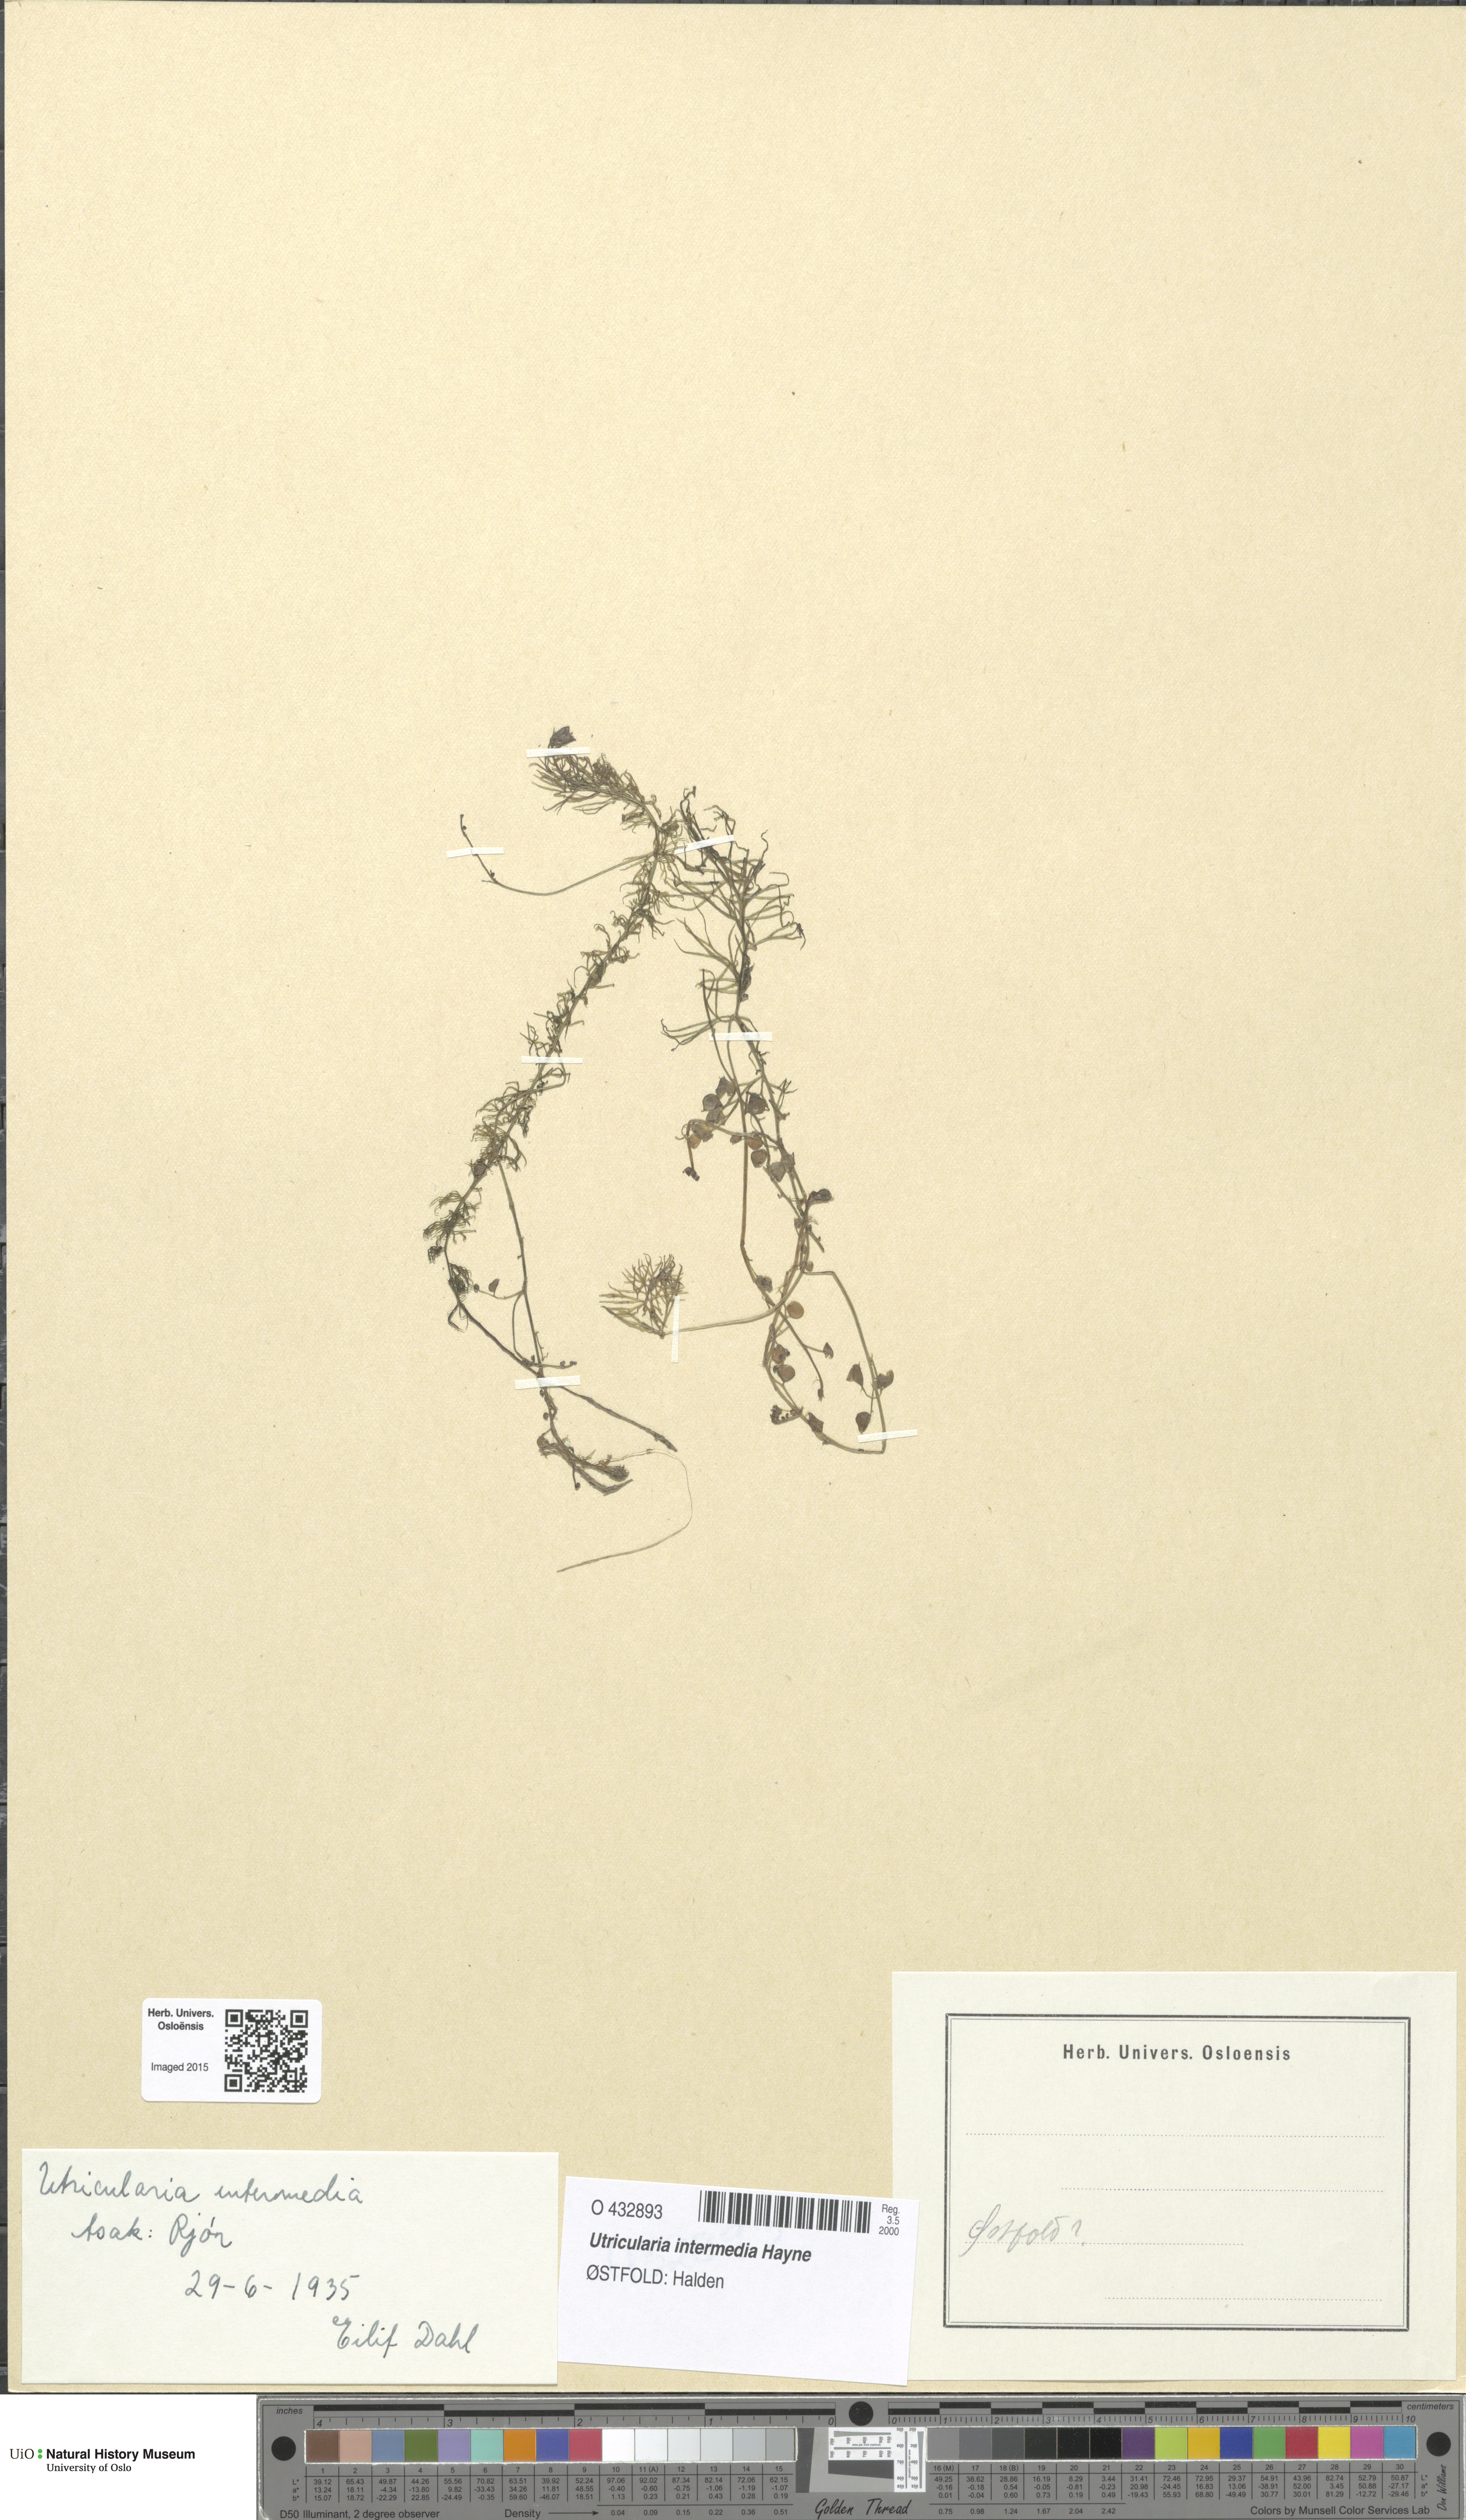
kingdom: Plantae
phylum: Tracheophyta
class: Magnoliopsida
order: Lamiales
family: Lentibulariaceae
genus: Utricularia
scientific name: Utricularia intermedia
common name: Intermediate bladderwort
